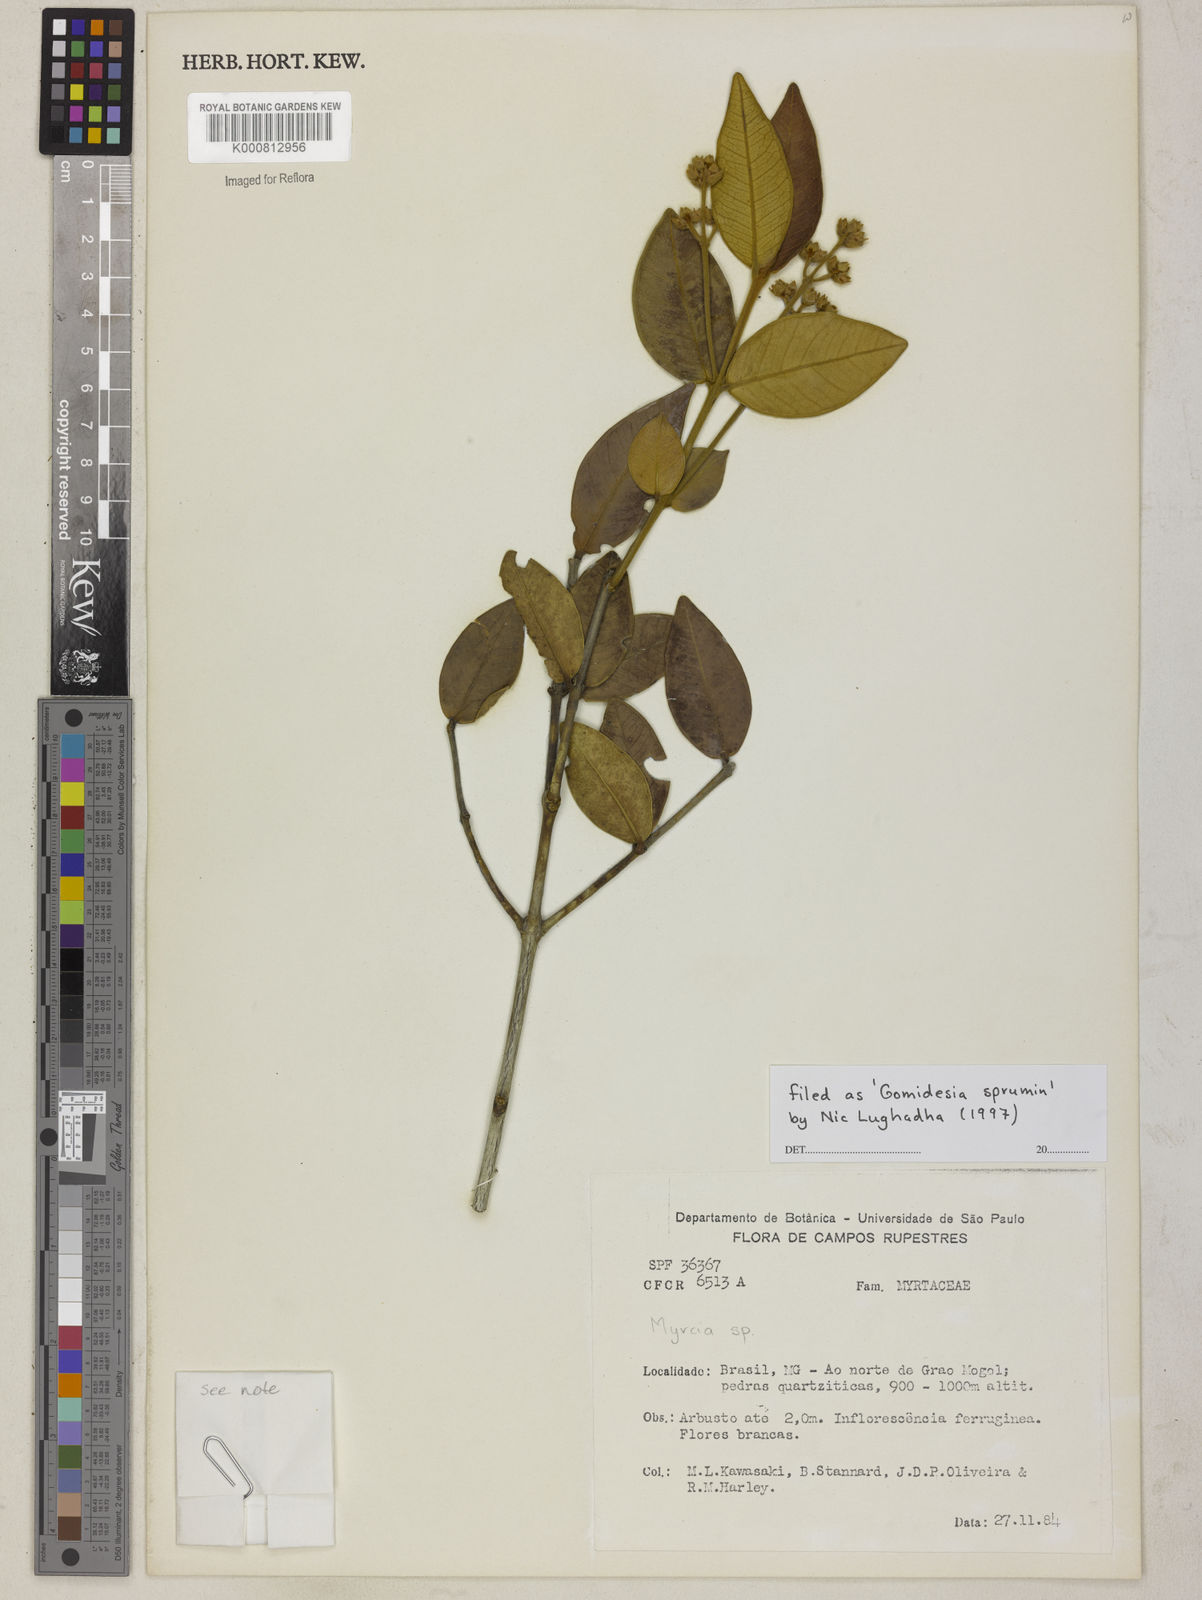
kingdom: Plantae
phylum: Tracheophyta
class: Magnoliopsida
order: Myrtales
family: Myrtaceae
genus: Myrcia
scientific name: Myrcia
